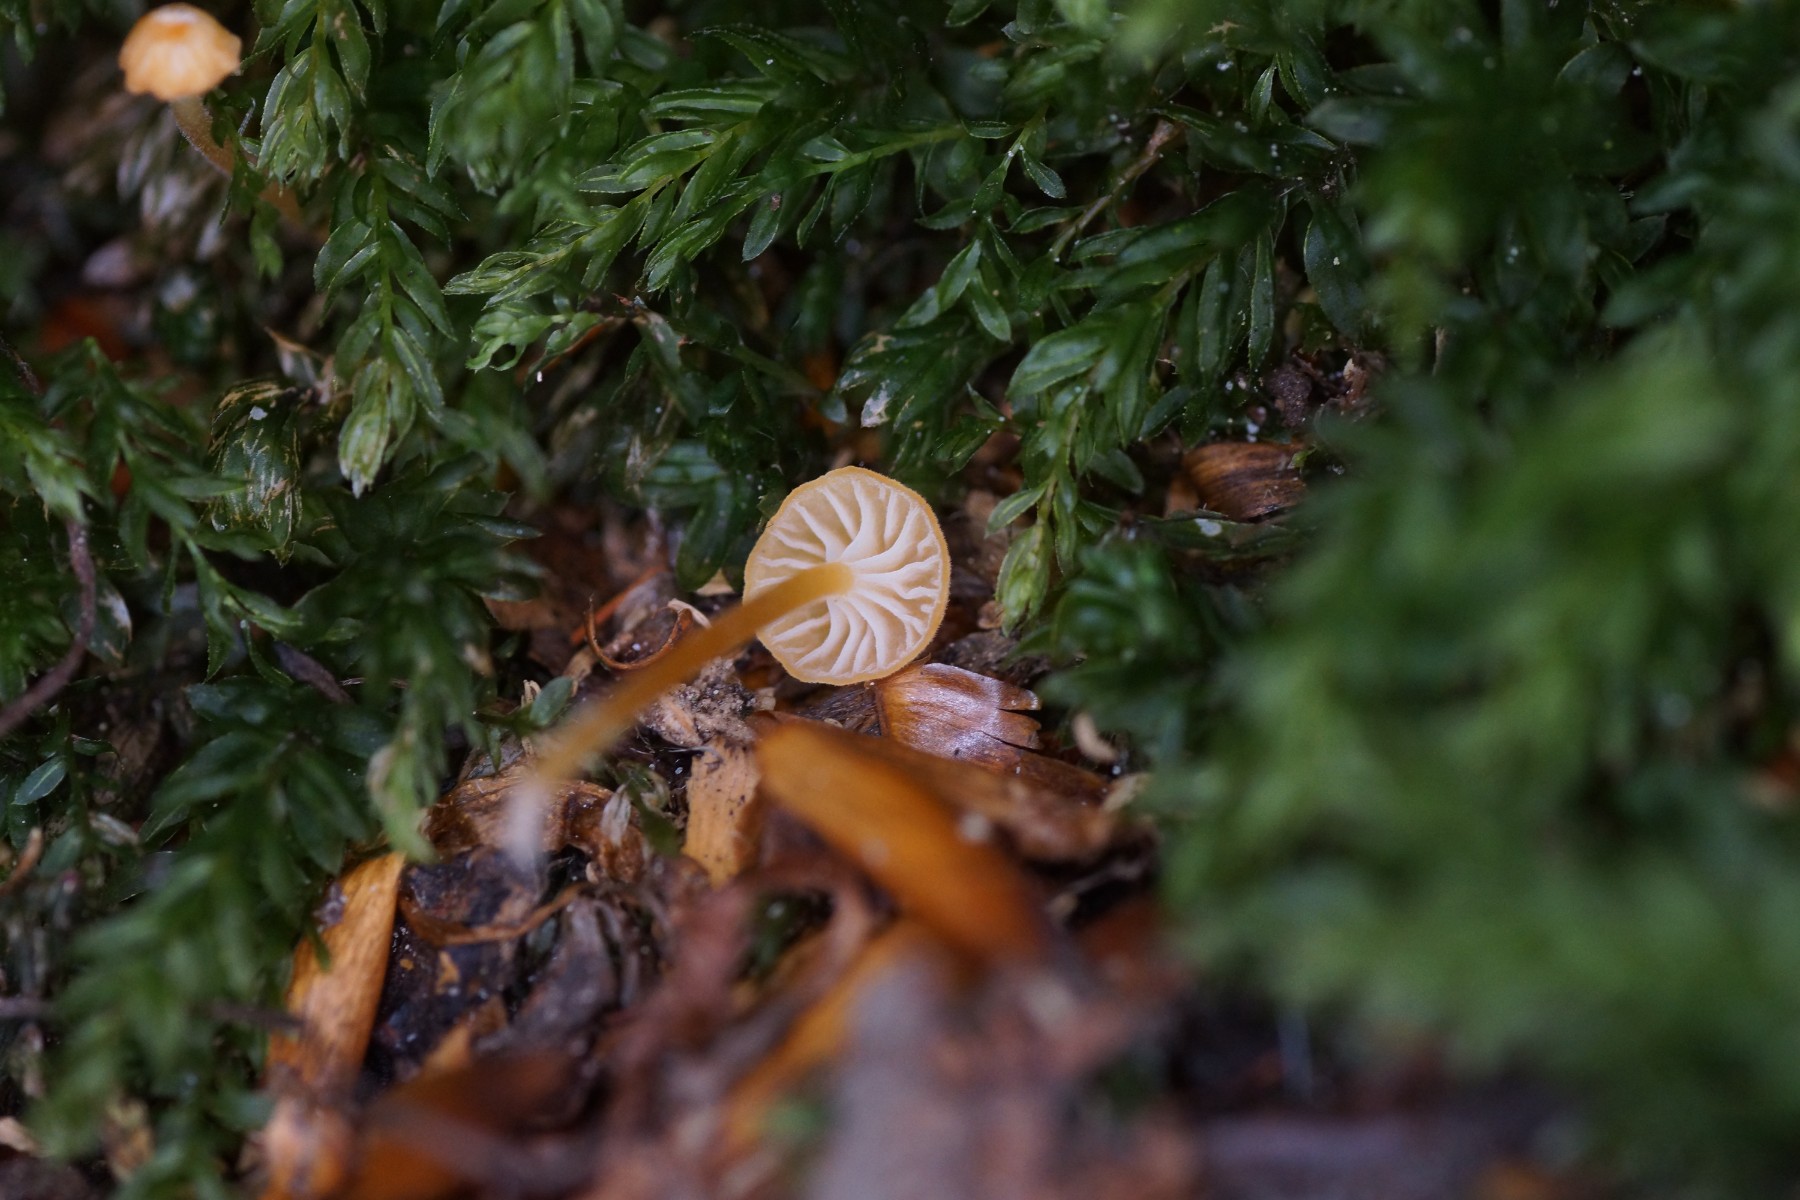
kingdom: Fungi
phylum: Basidiomycota
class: Agaricomycetes
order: Hymenochaetales
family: Rickenellaceae
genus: Rickenella
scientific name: Rickenella fibula
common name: orange mosnavlehat
